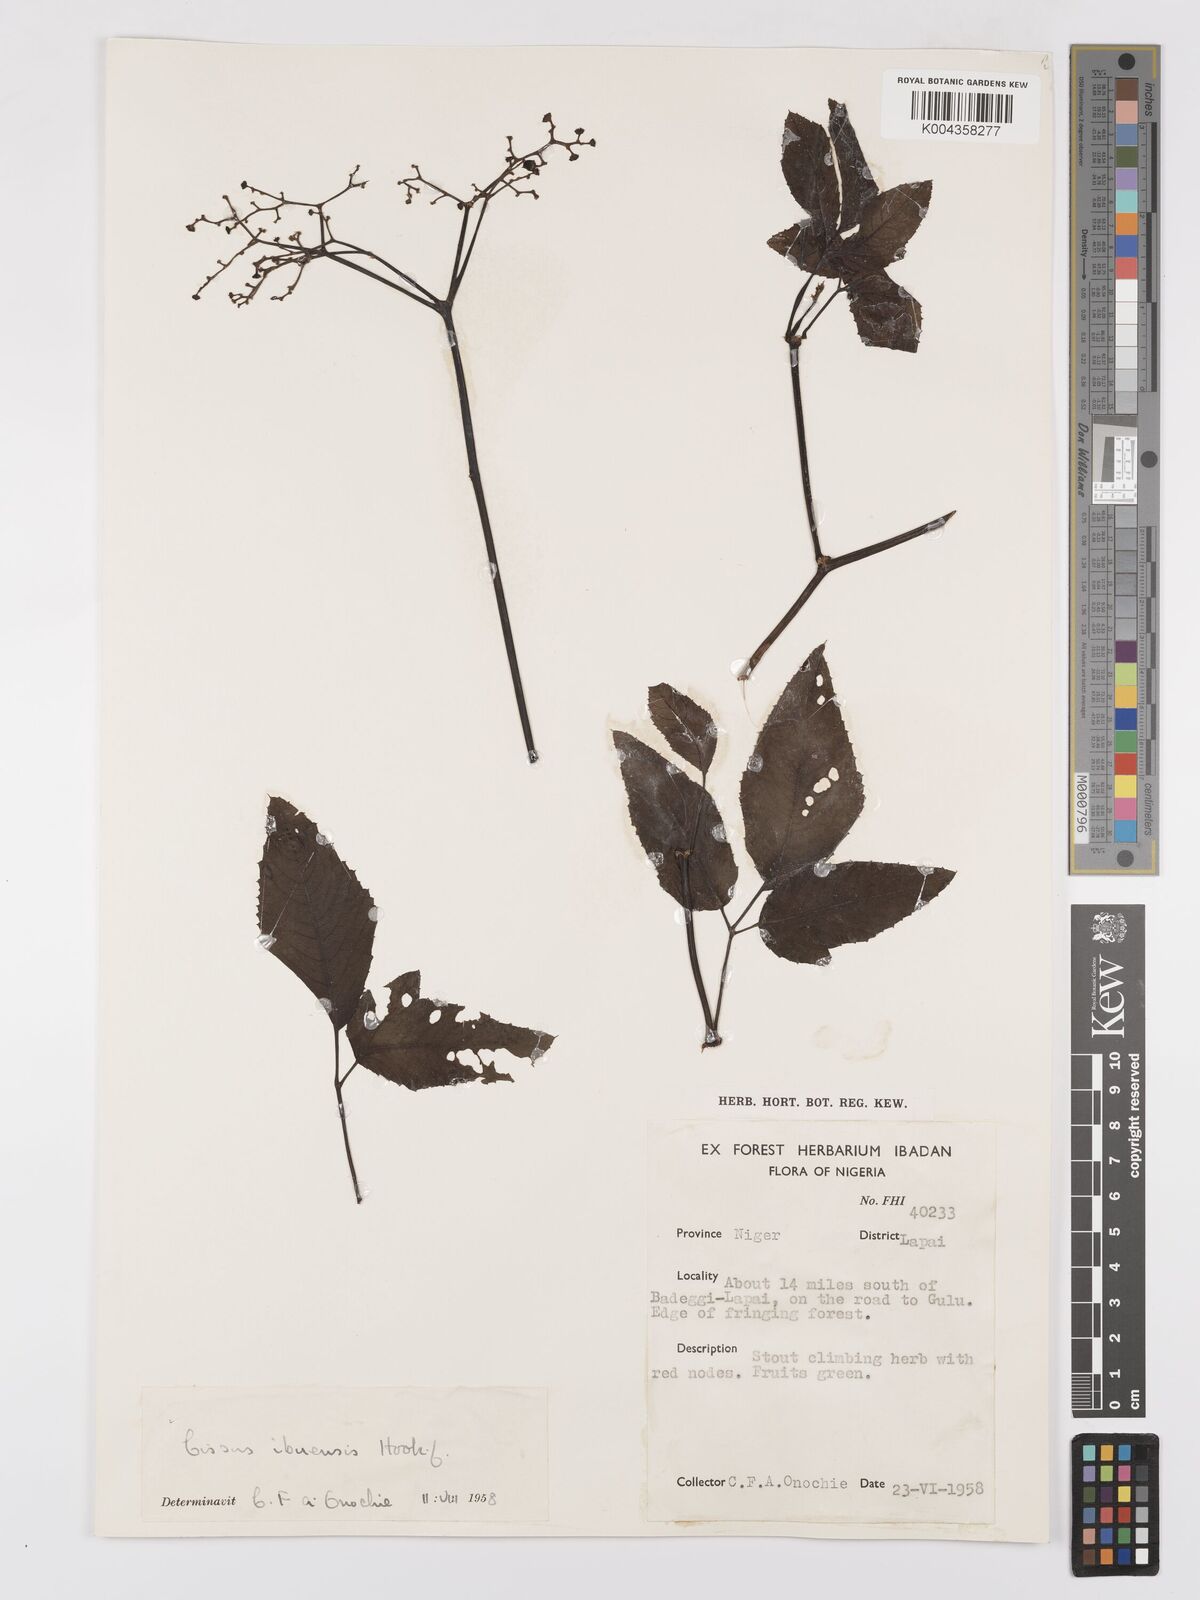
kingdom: Plantae
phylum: Tracheophyta
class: Magnoliopsida
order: Vitales
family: Vitaceae
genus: Afrocayratia
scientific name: Afrocayratia ibuensis
